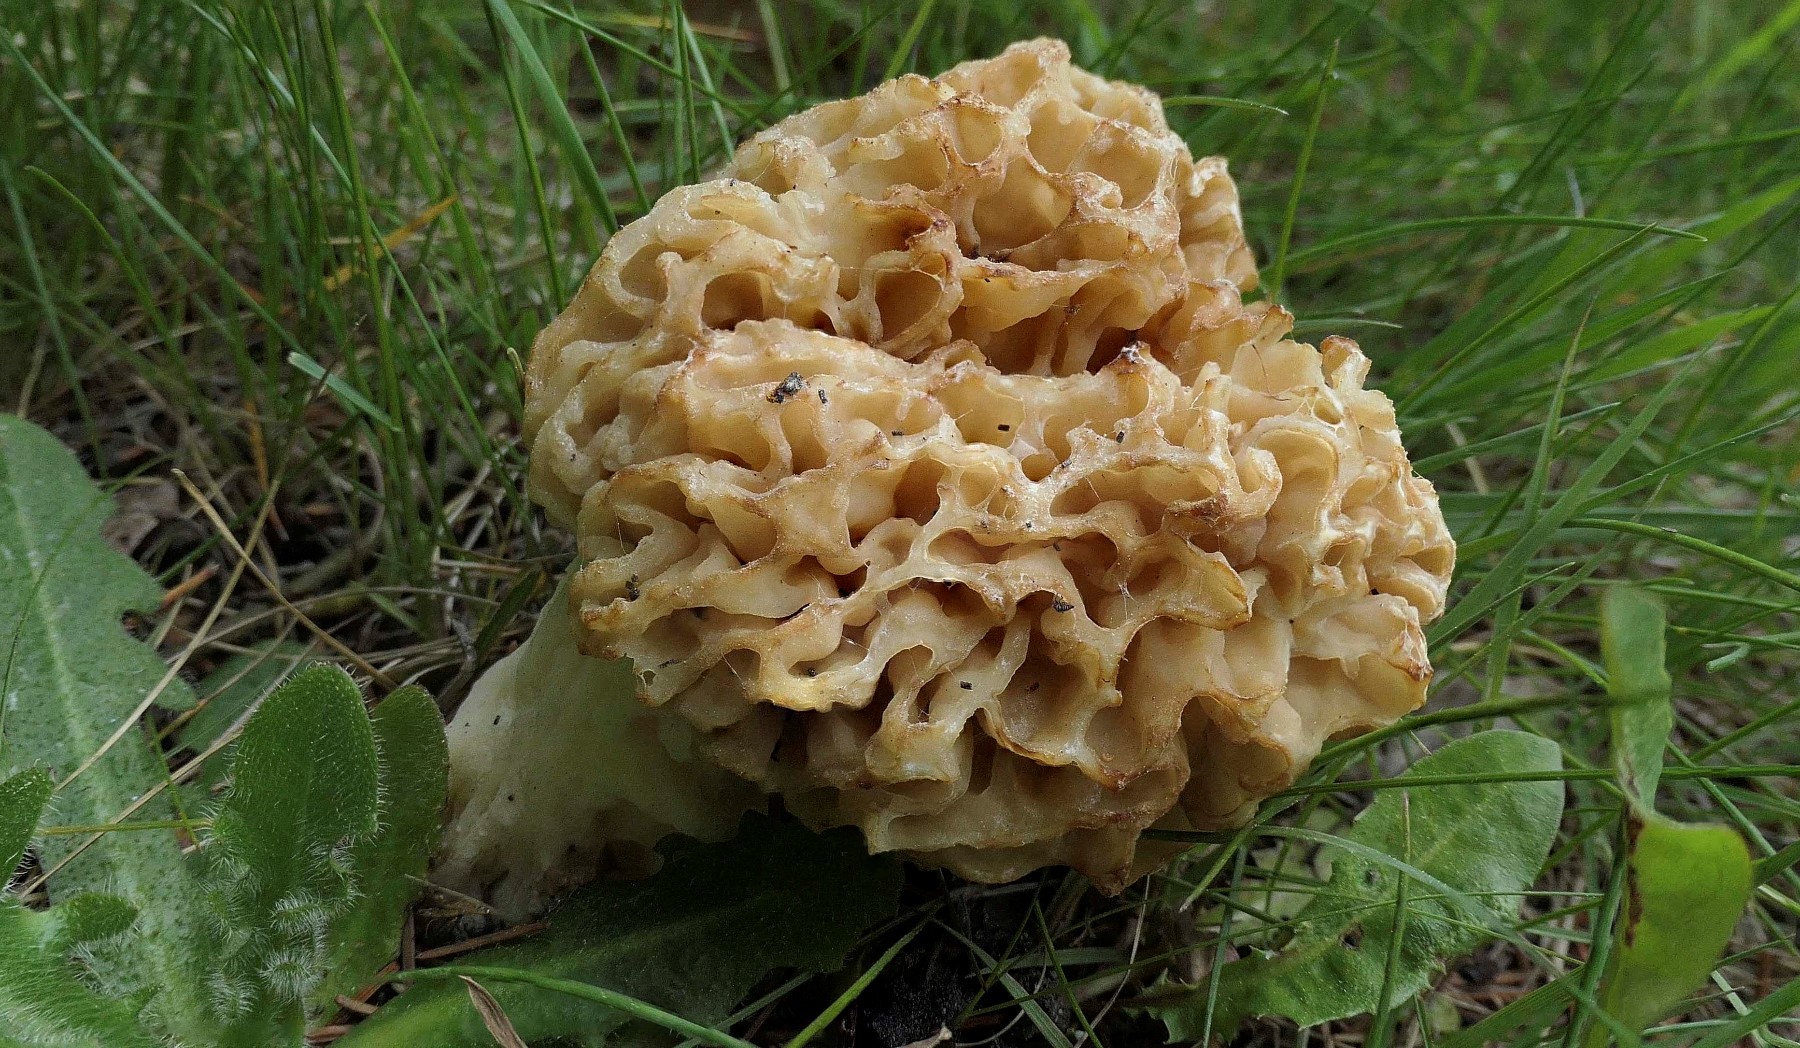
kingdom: Fungi
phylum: Ascomycota
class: Pezizomycetes
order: Pezizales
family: Morchellaceae
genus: Morchella
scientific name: Morchella esculenta
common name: spiselig morkel
